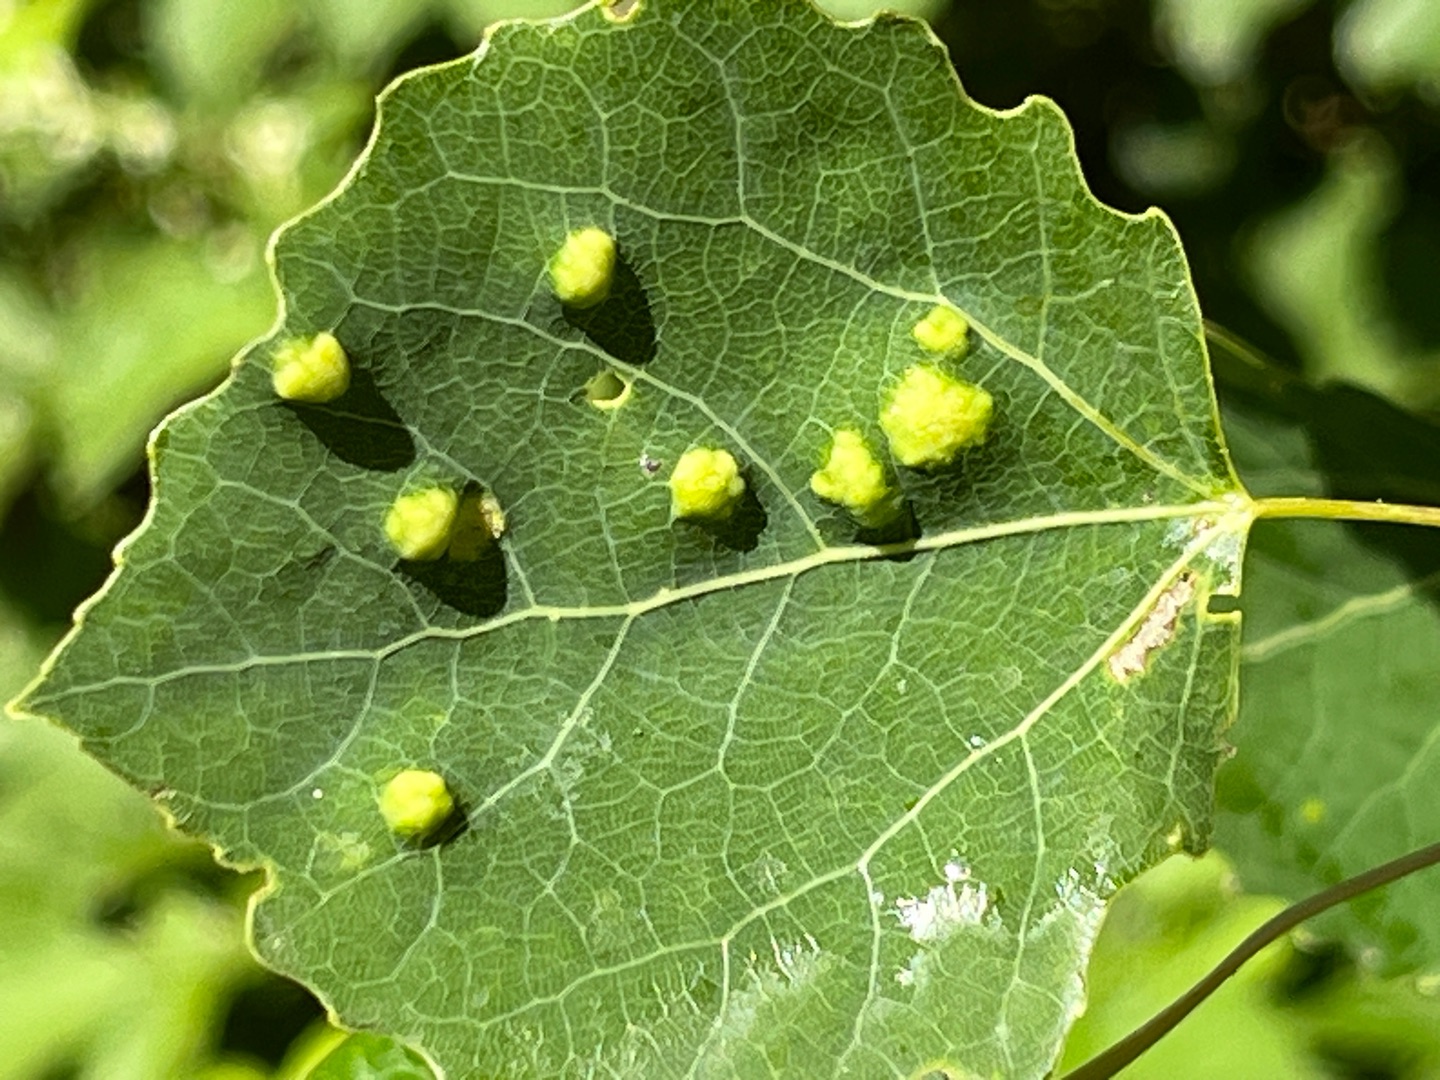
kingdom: Animalia
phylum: Arthropoda
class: Arachnida
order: Trombidiformes
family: Eriophyidae
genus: Phyllocoptes
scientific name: Phyllocoptes populi
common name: Aspegalmide
